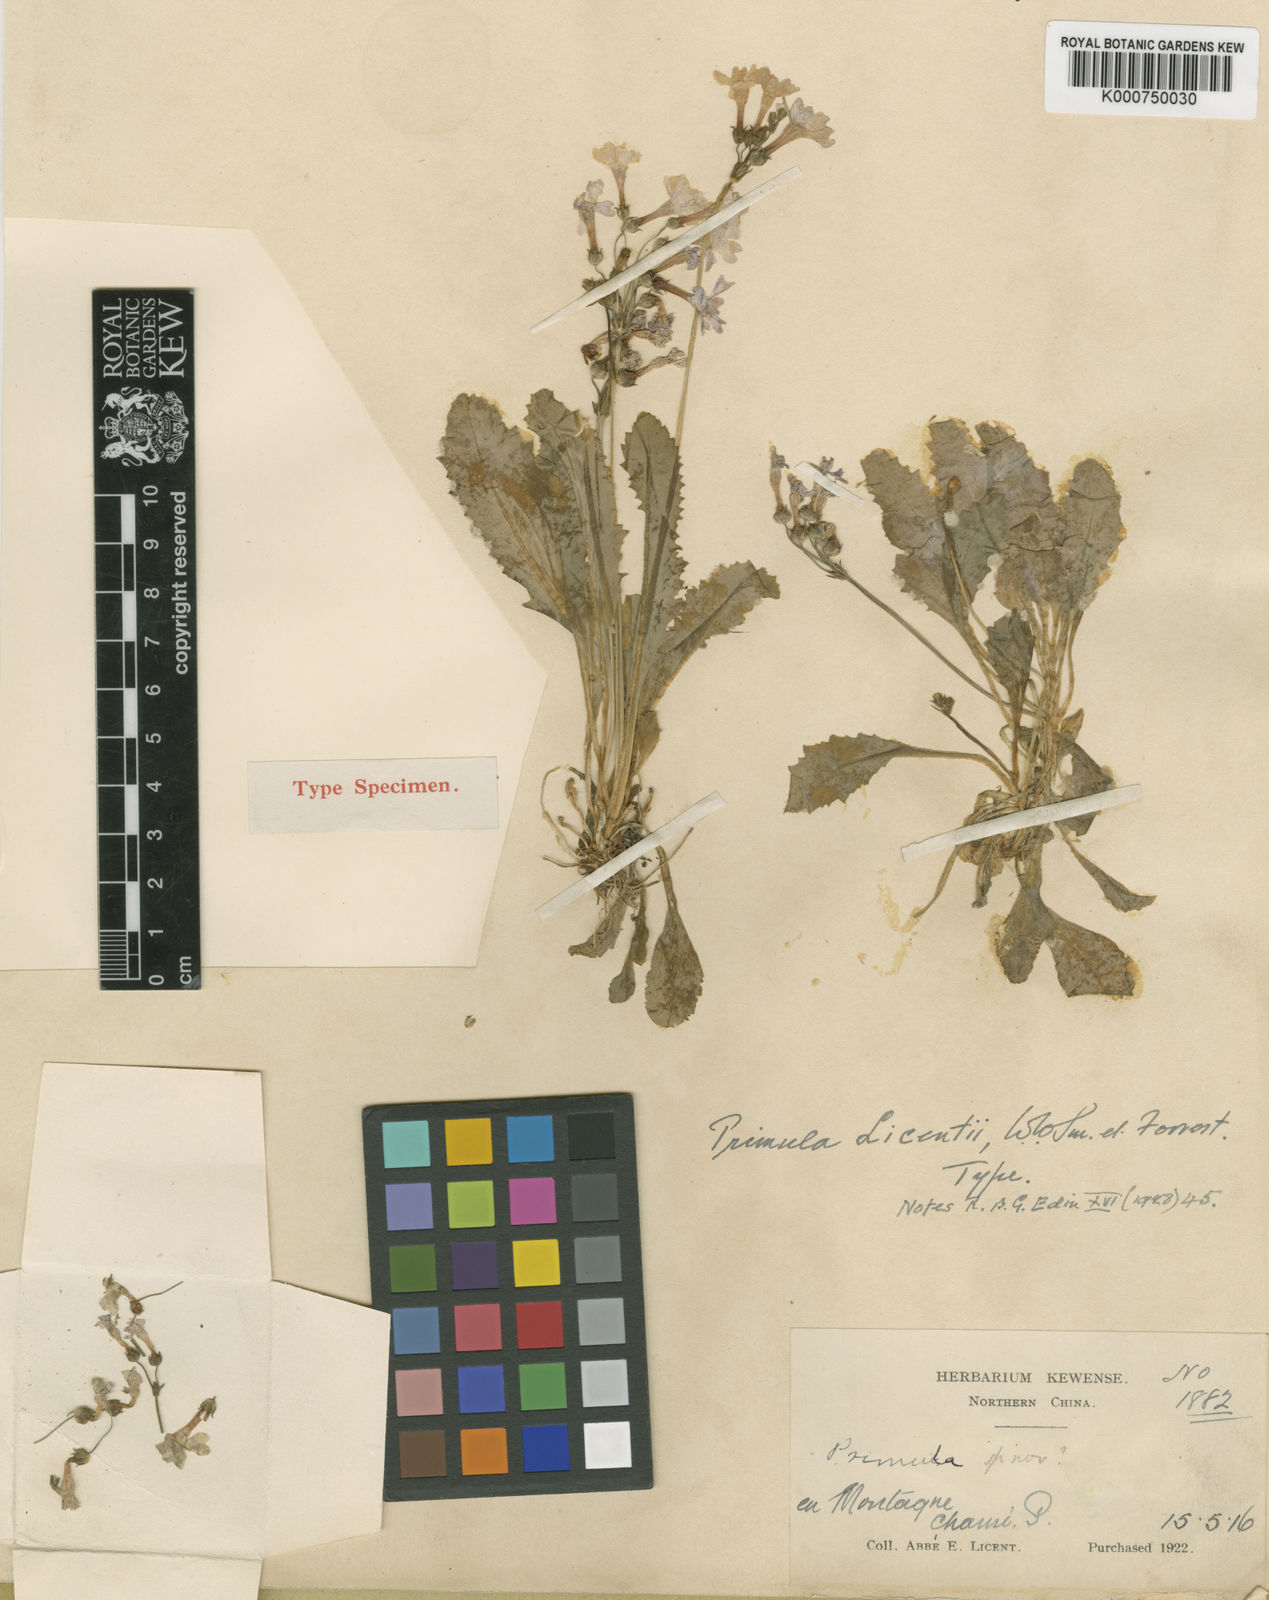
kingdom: Plantae
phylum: Tracheophyta
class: Magnoliopsida
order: Ericales
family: Primulaceae
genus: Primula
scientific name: Primula conspersa
